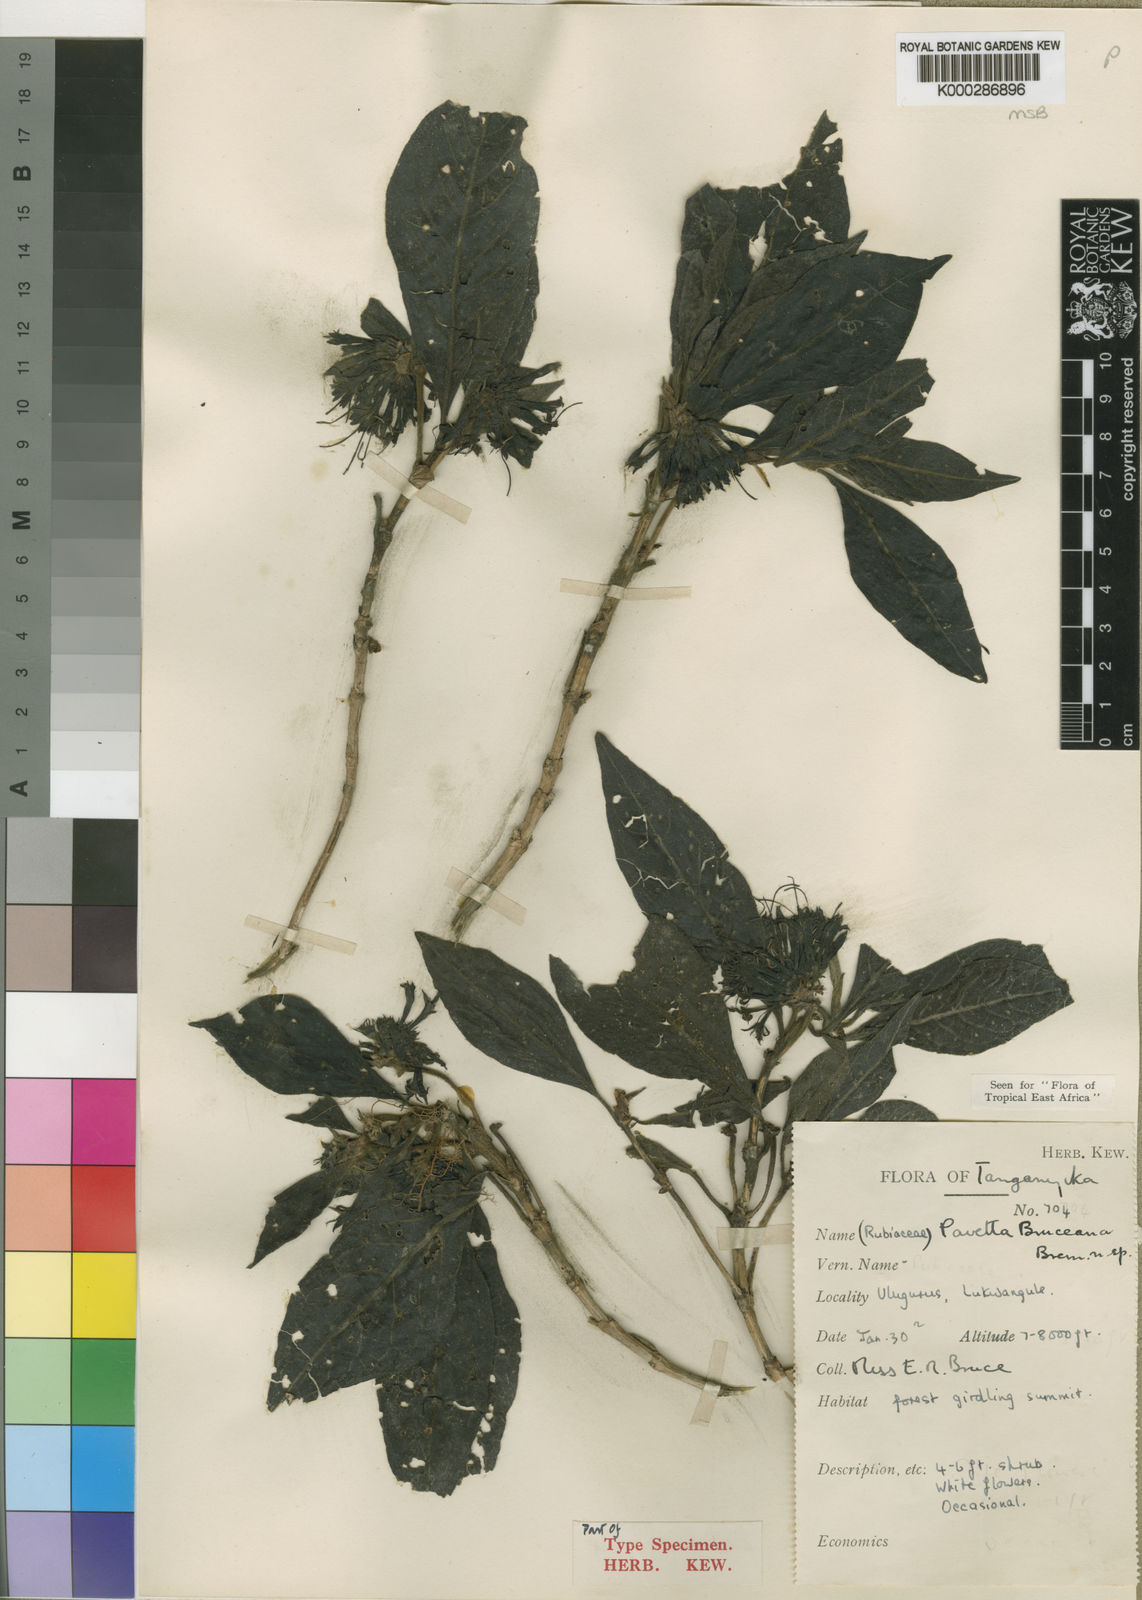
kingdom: Plantae
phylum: Tracheophyta
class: Magnoliopsida
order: Gentianales
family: Rubiaceae
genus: Pavetta
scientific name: Pavetta bruceana
